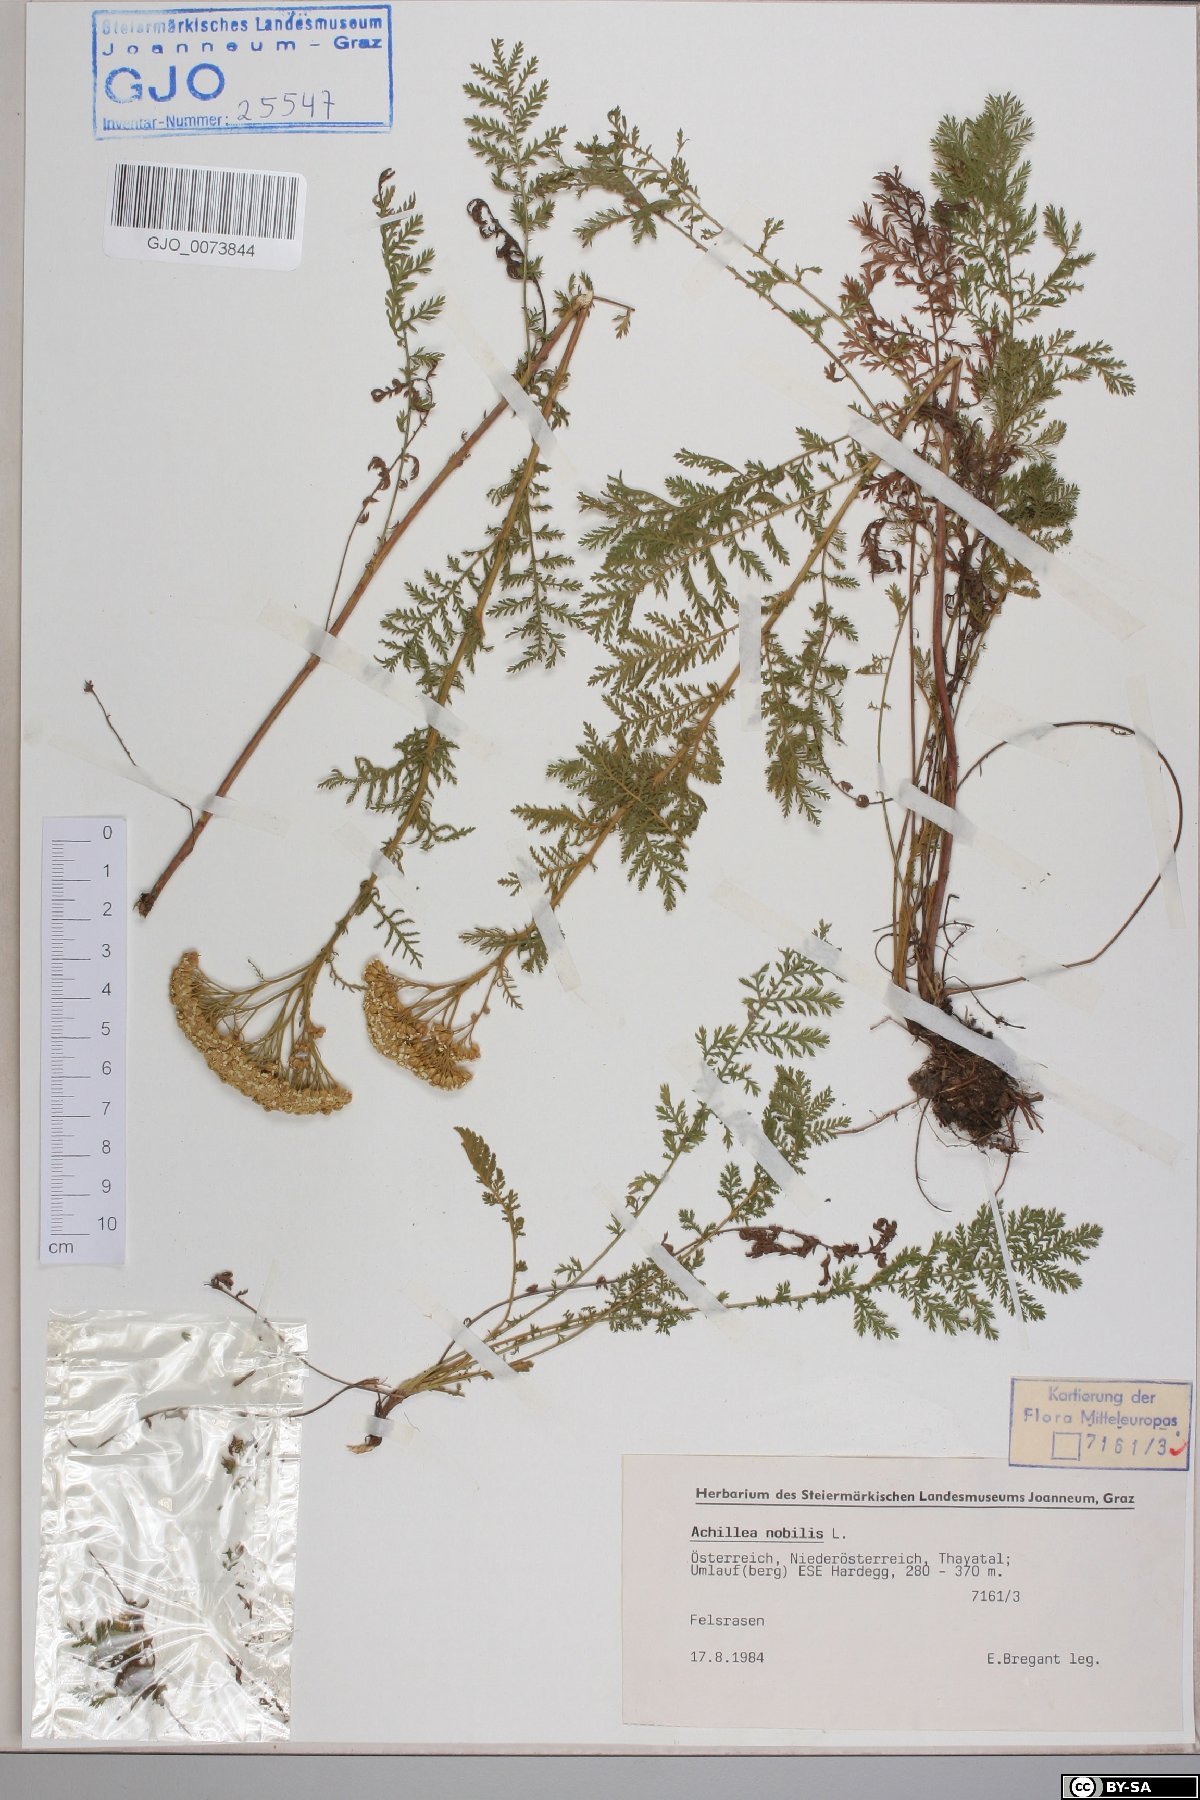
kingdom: Plantae
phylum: Tracheophyta
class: Magnoliopsida
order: Asterales
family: Asteraceae
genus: Achillea
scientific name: Achillea nobilis
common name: Noble yarrow
